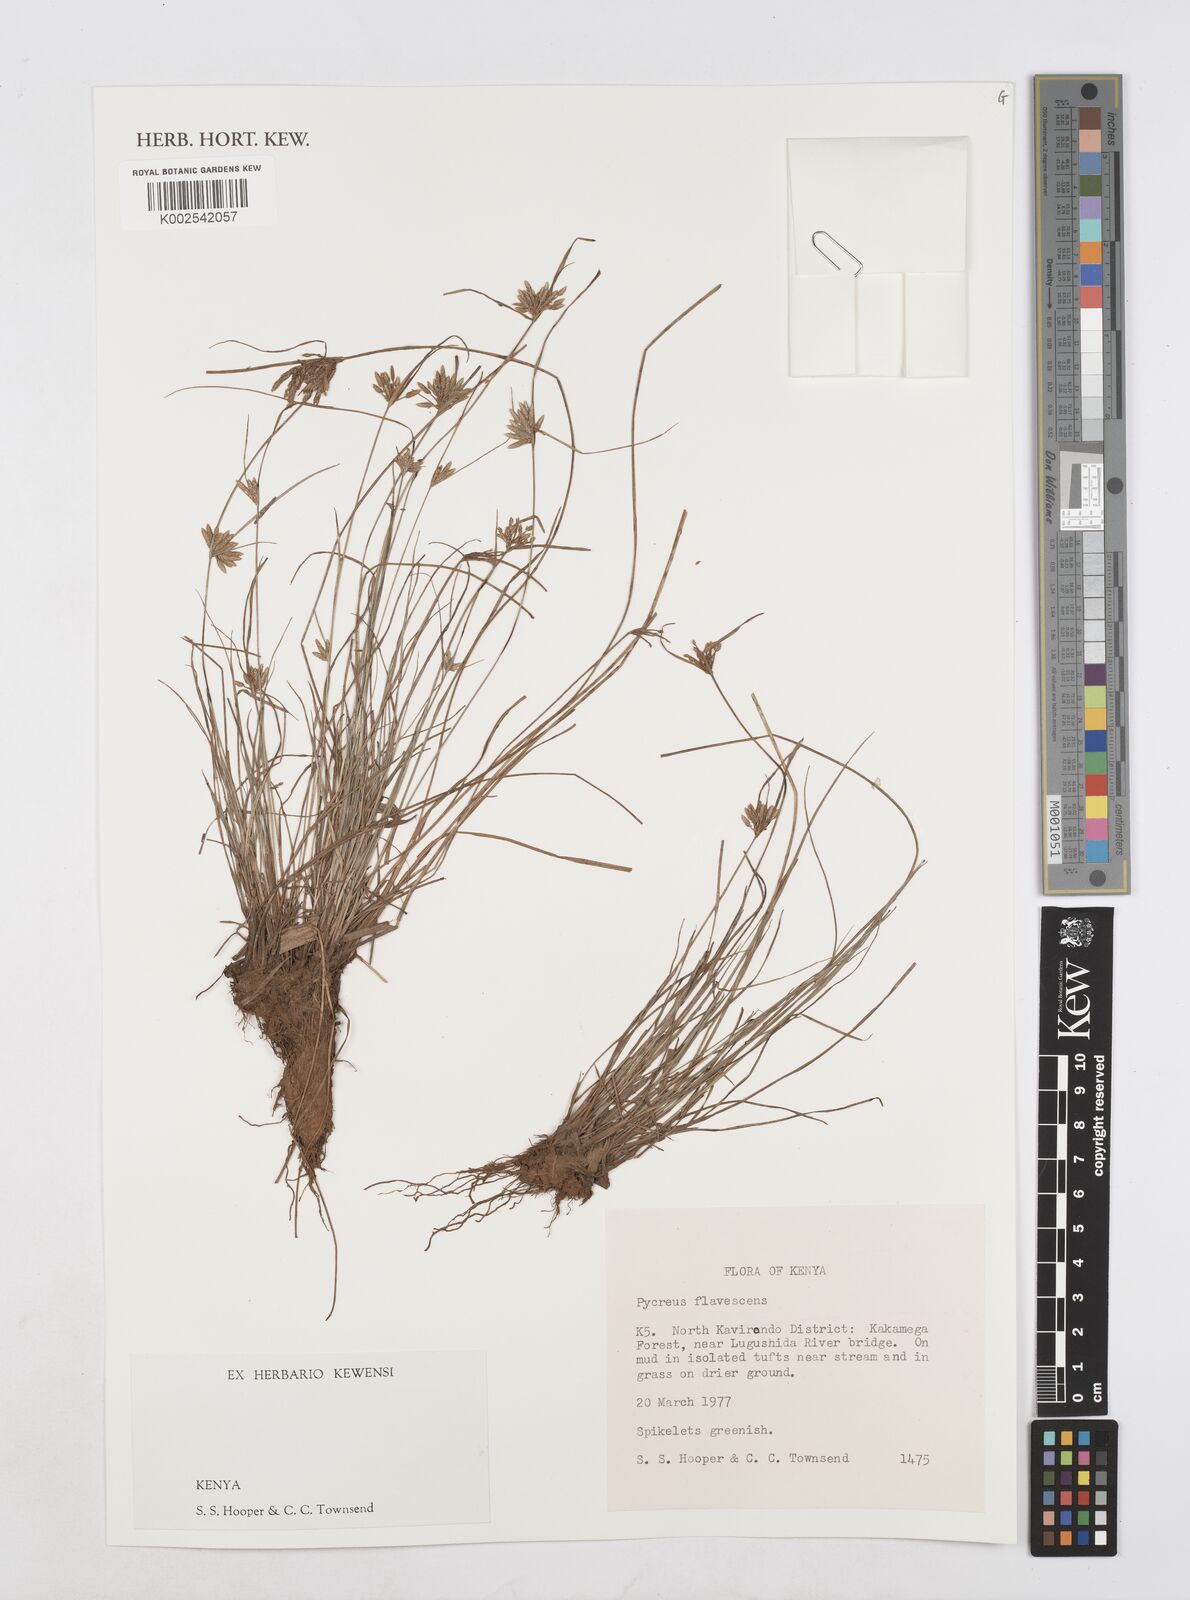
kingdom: Plantae
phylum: Tracheophyta
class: Liliopsida
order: Poales
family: Cyperaceae
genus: Cyperus
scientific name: Cyperus flavescens
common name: Yellow galingale
